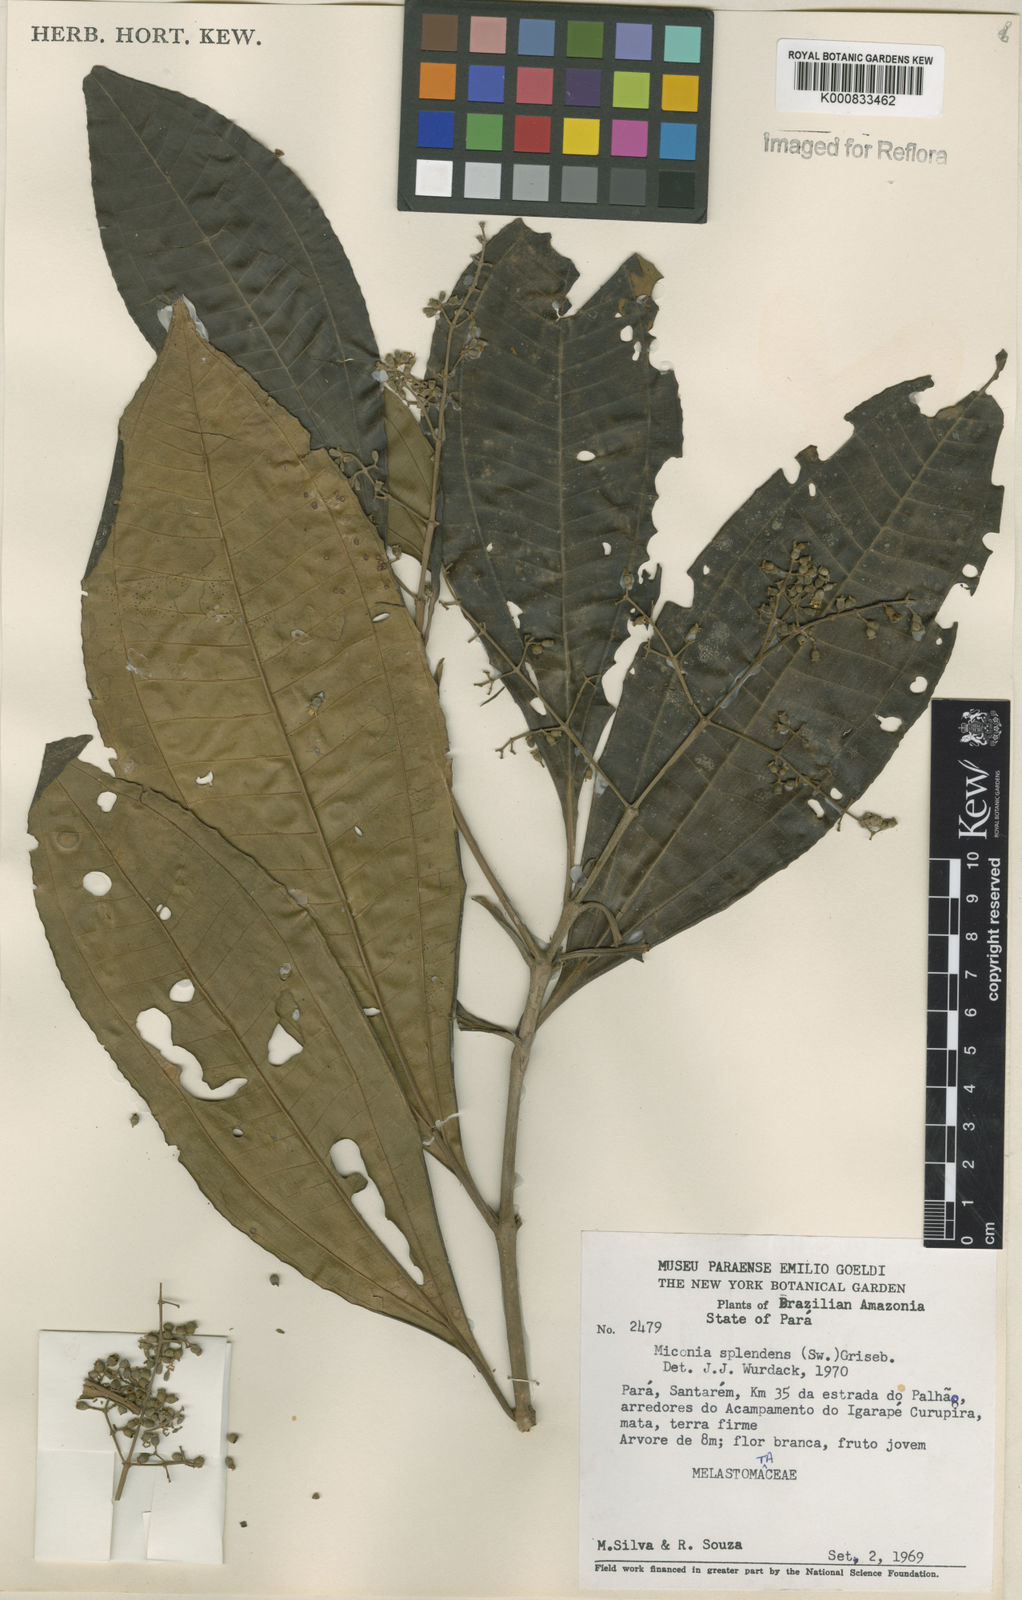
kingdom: Plantae
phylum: Tracheophyta
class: Magnoliopsida
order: Myrtales
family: Melastomataceae
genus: Miconia
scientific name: Miconia splendens
